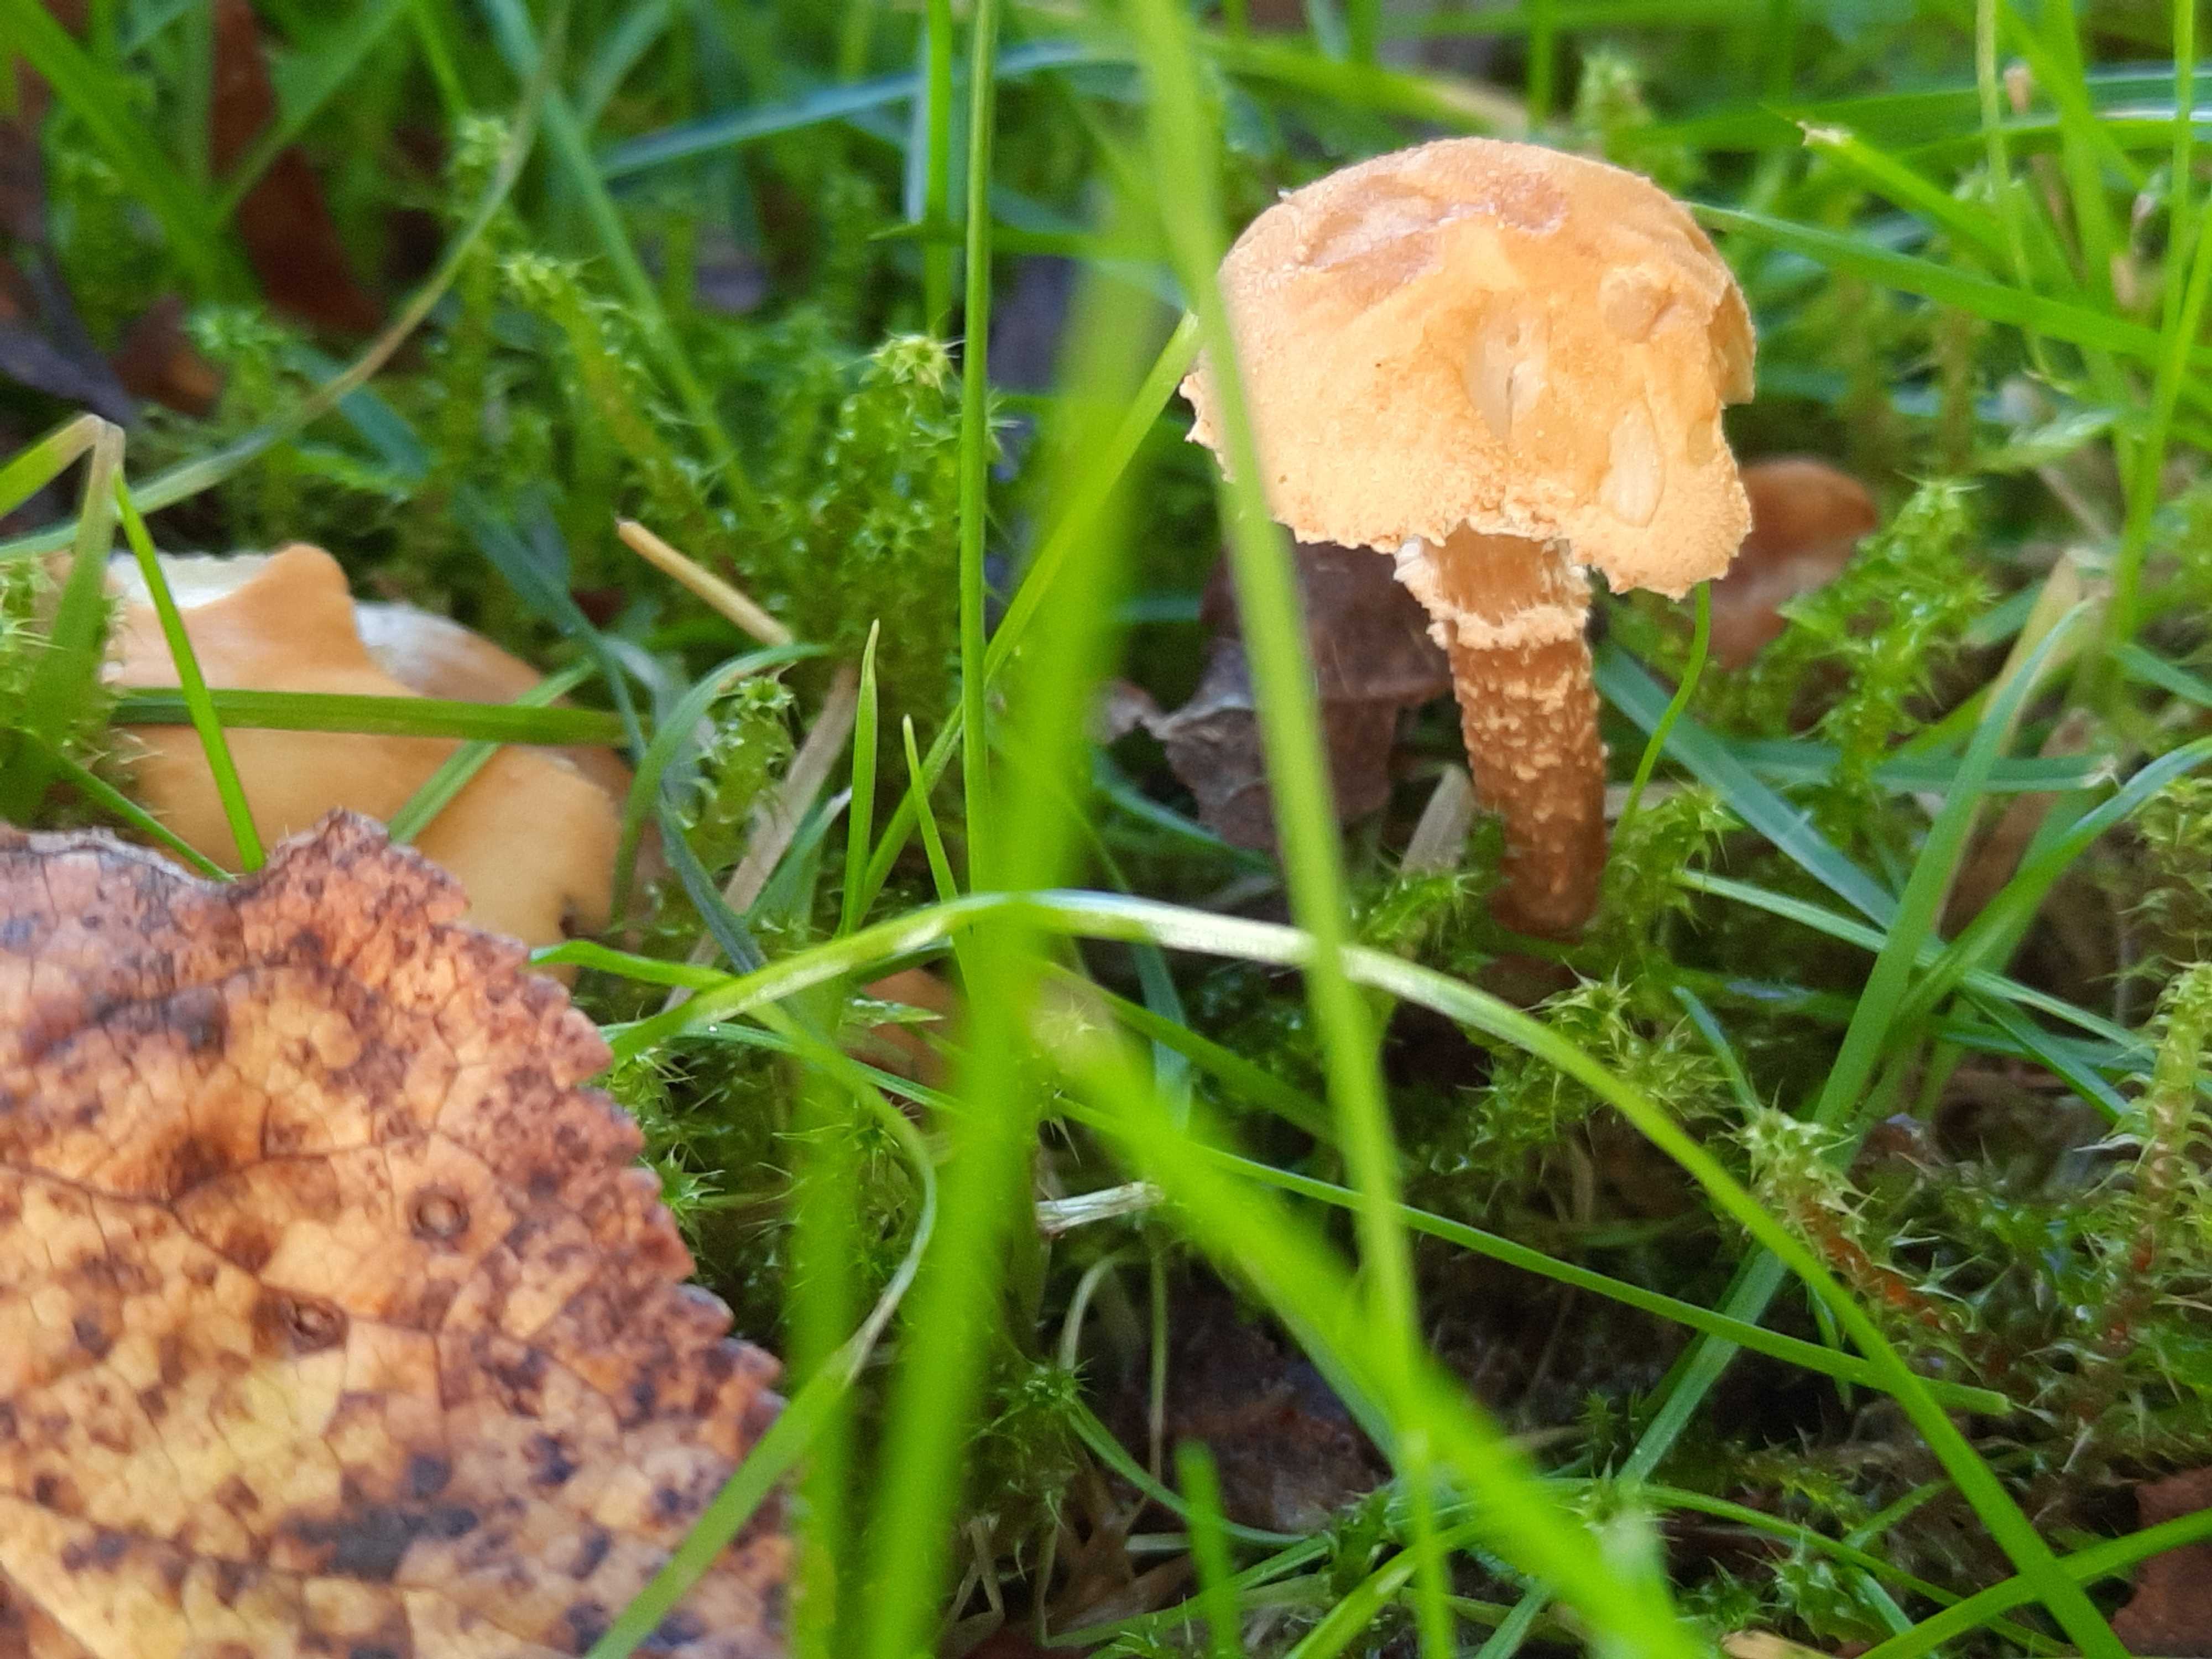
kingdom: Fungi
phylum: Basidiomycota
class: Agaricomycetes
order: Agaricales
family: Tricholomataceae
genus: Cystoderma
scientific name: Cystoderma amianthinum
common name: okkergul grynhat
